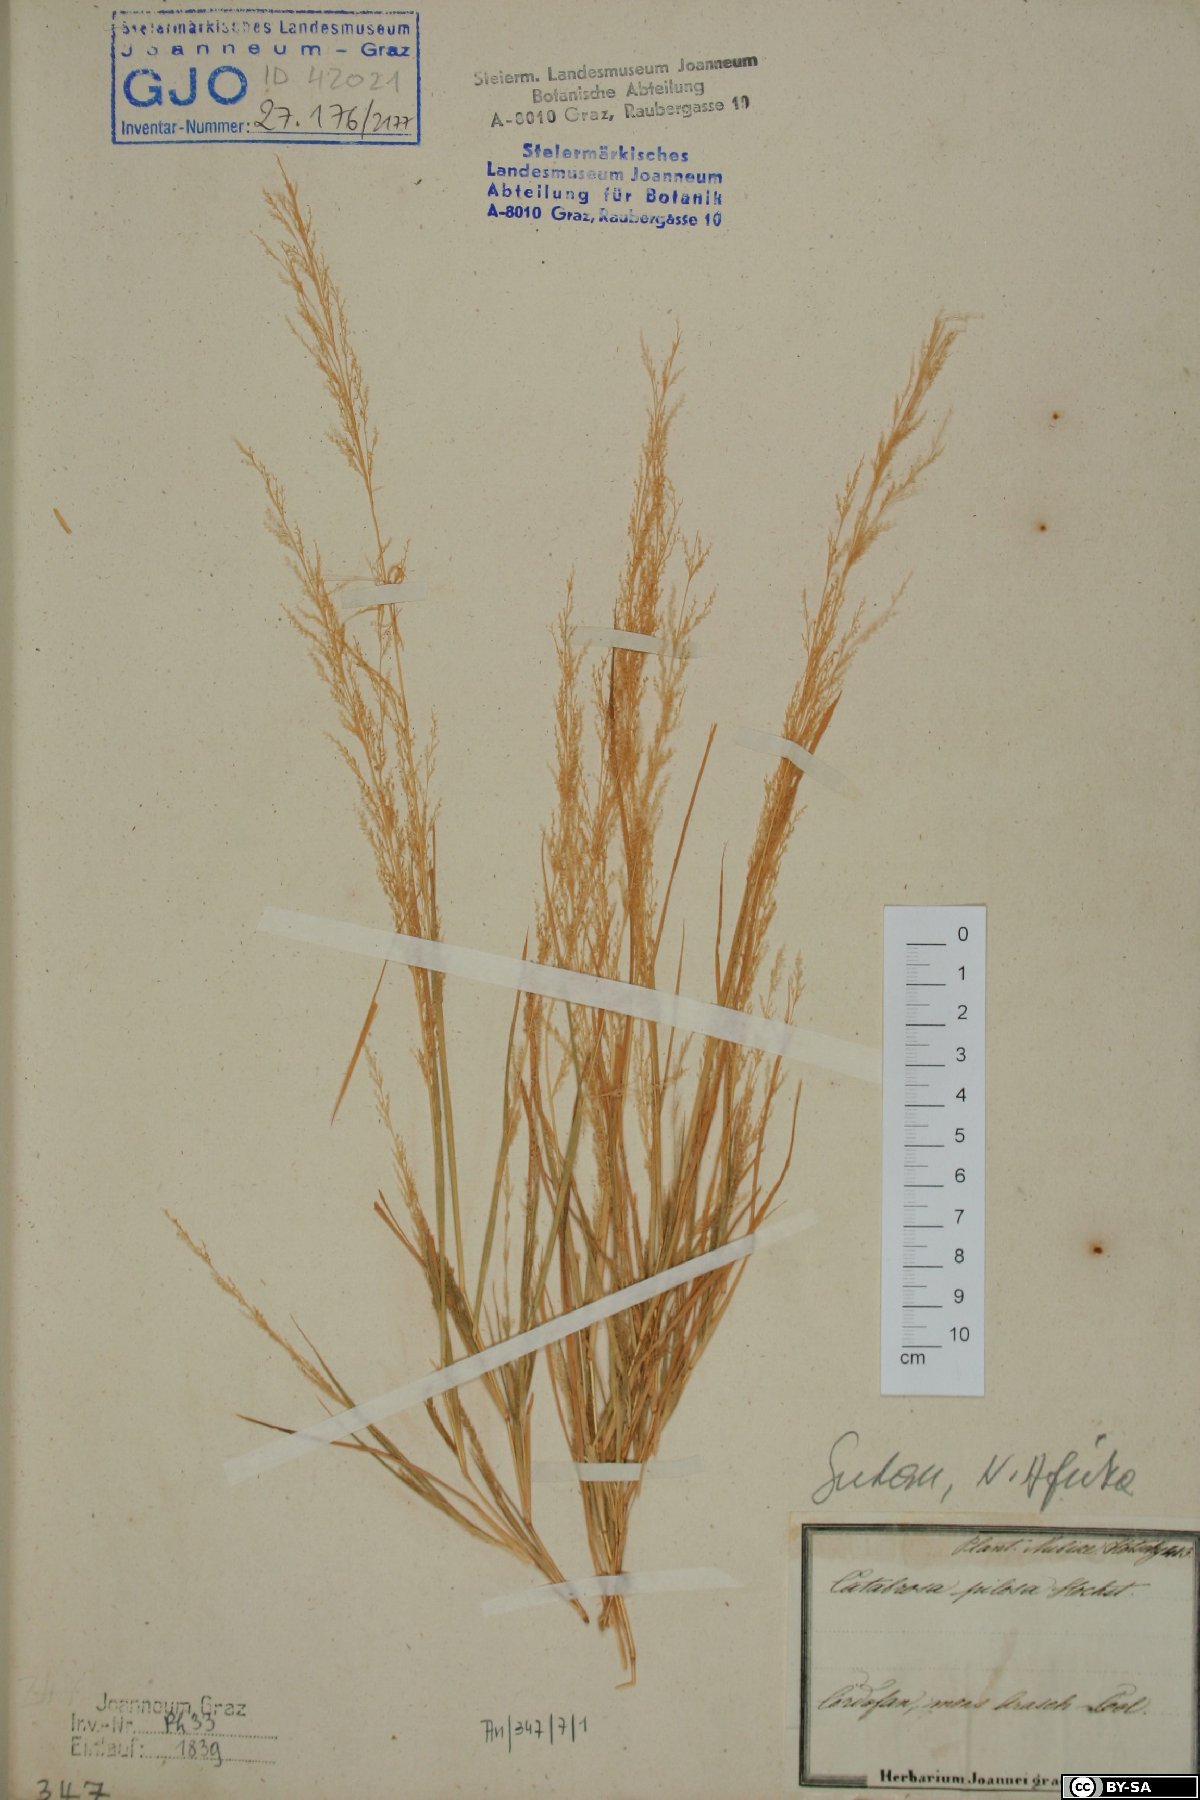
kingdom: Plantae
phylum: Tracheophyta
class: Liliopsida
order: Poales
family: Poaceae
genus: Eragrostis
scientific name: Eragrostis japonica
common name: Pond lovegrass
